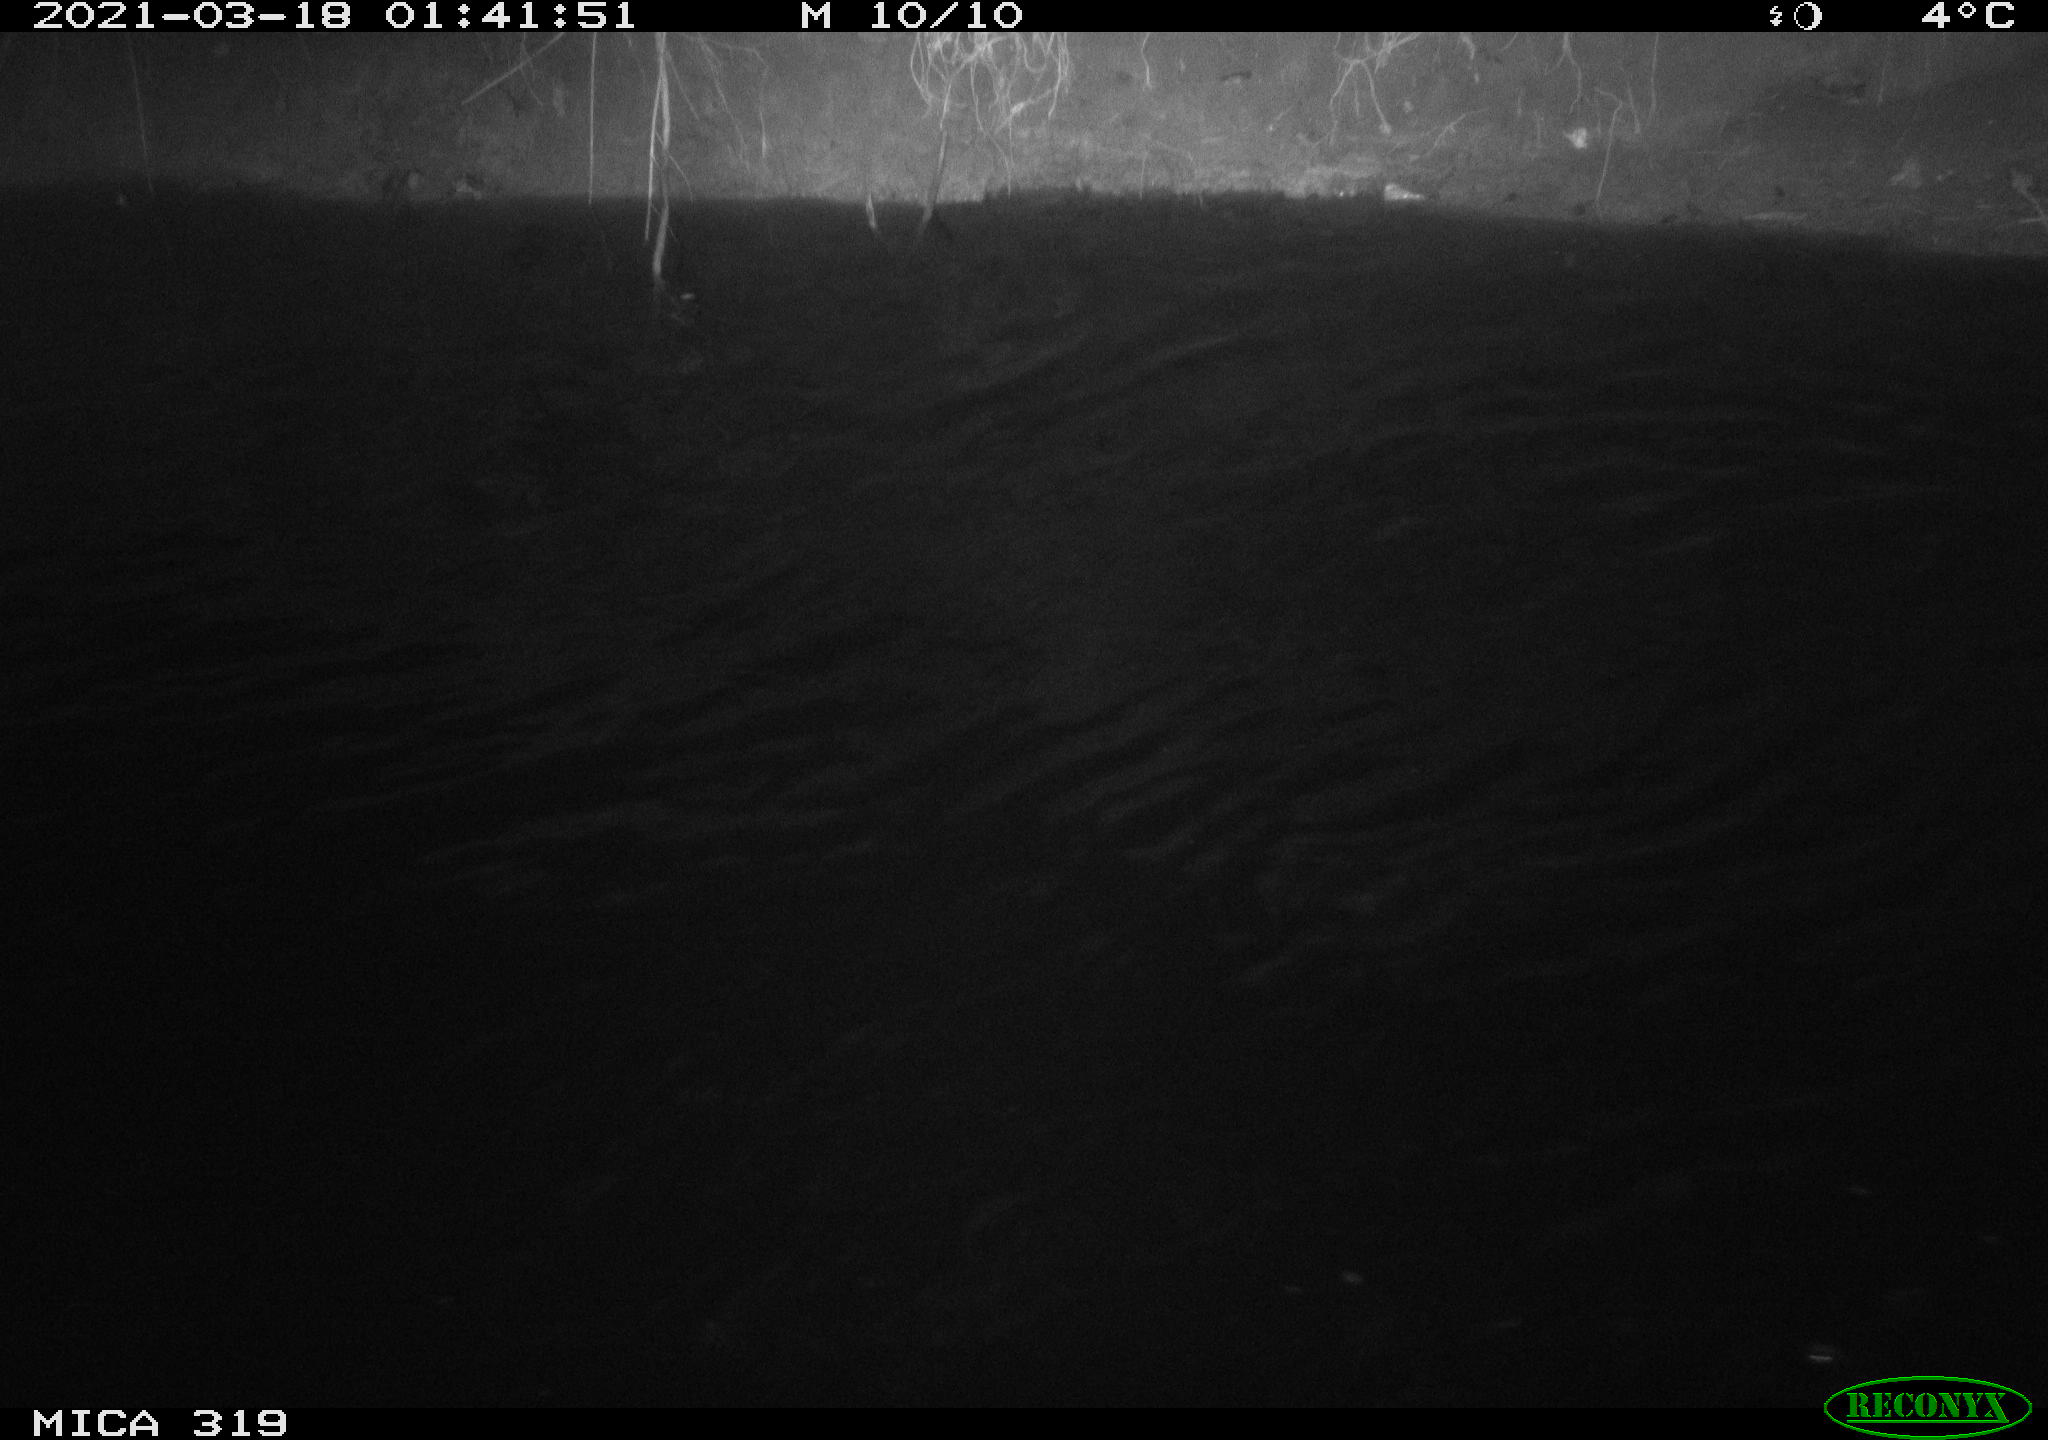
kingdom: Animalia
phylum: Chordata
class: Aves
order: Anseriformes
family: Anatidae
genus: Anas
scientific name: Anas platyrhynchos
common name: Mallard
